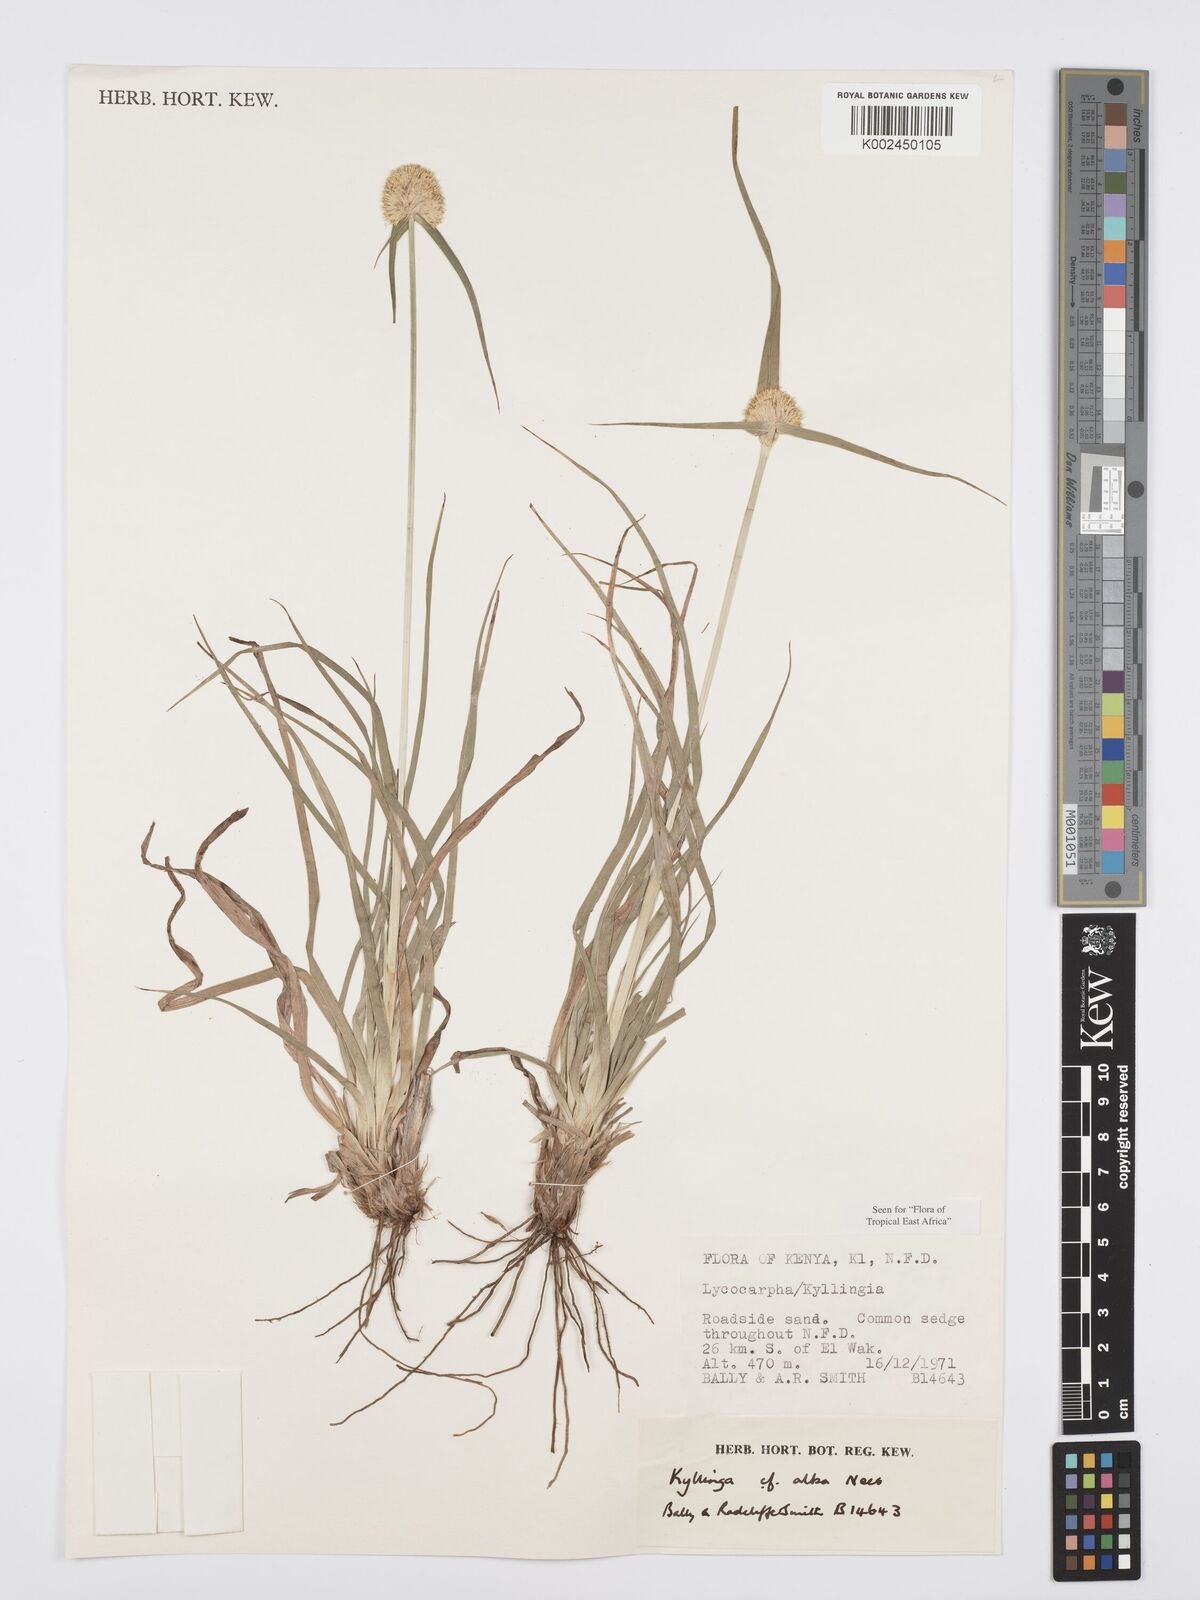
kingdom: Plantae
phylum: Tracheophyta
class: Liliopsida
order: Poales
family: Cyperaceae
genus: Cyperus
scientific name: Cyperus
